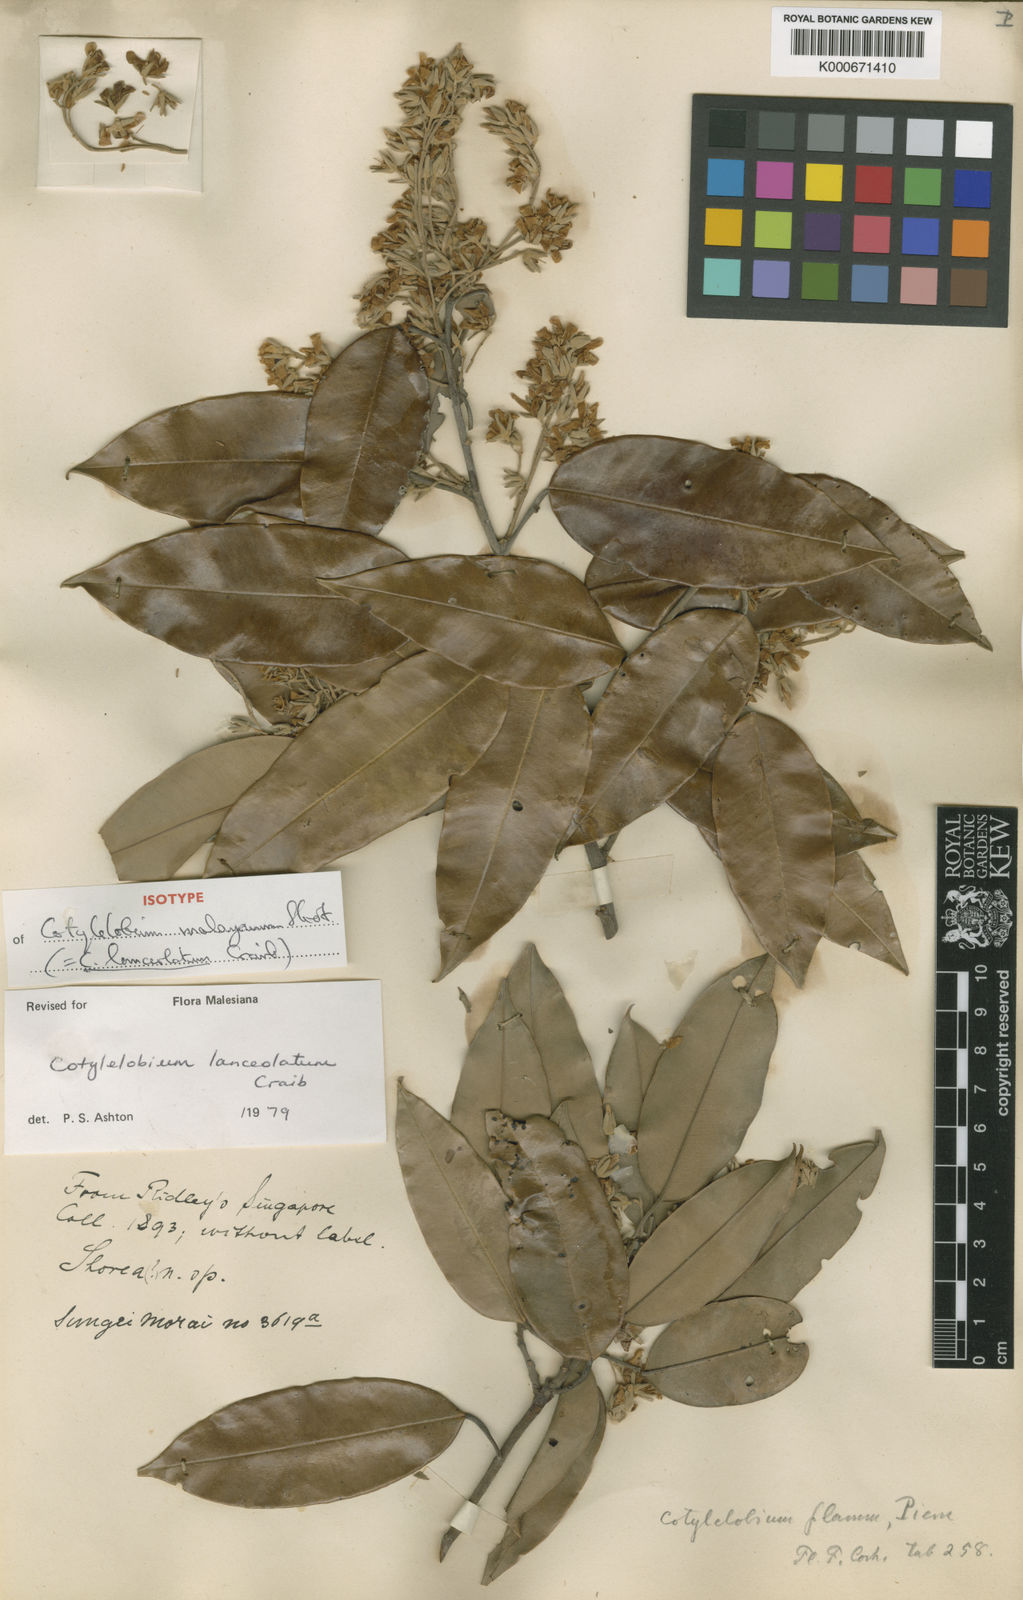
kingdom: Plantae
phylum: Tracheophyta
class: Magnoliopsida
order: Malvales
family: Dipterocarpaceae
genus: Cotylelobium
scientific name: Cotylelobium lanceolatum
